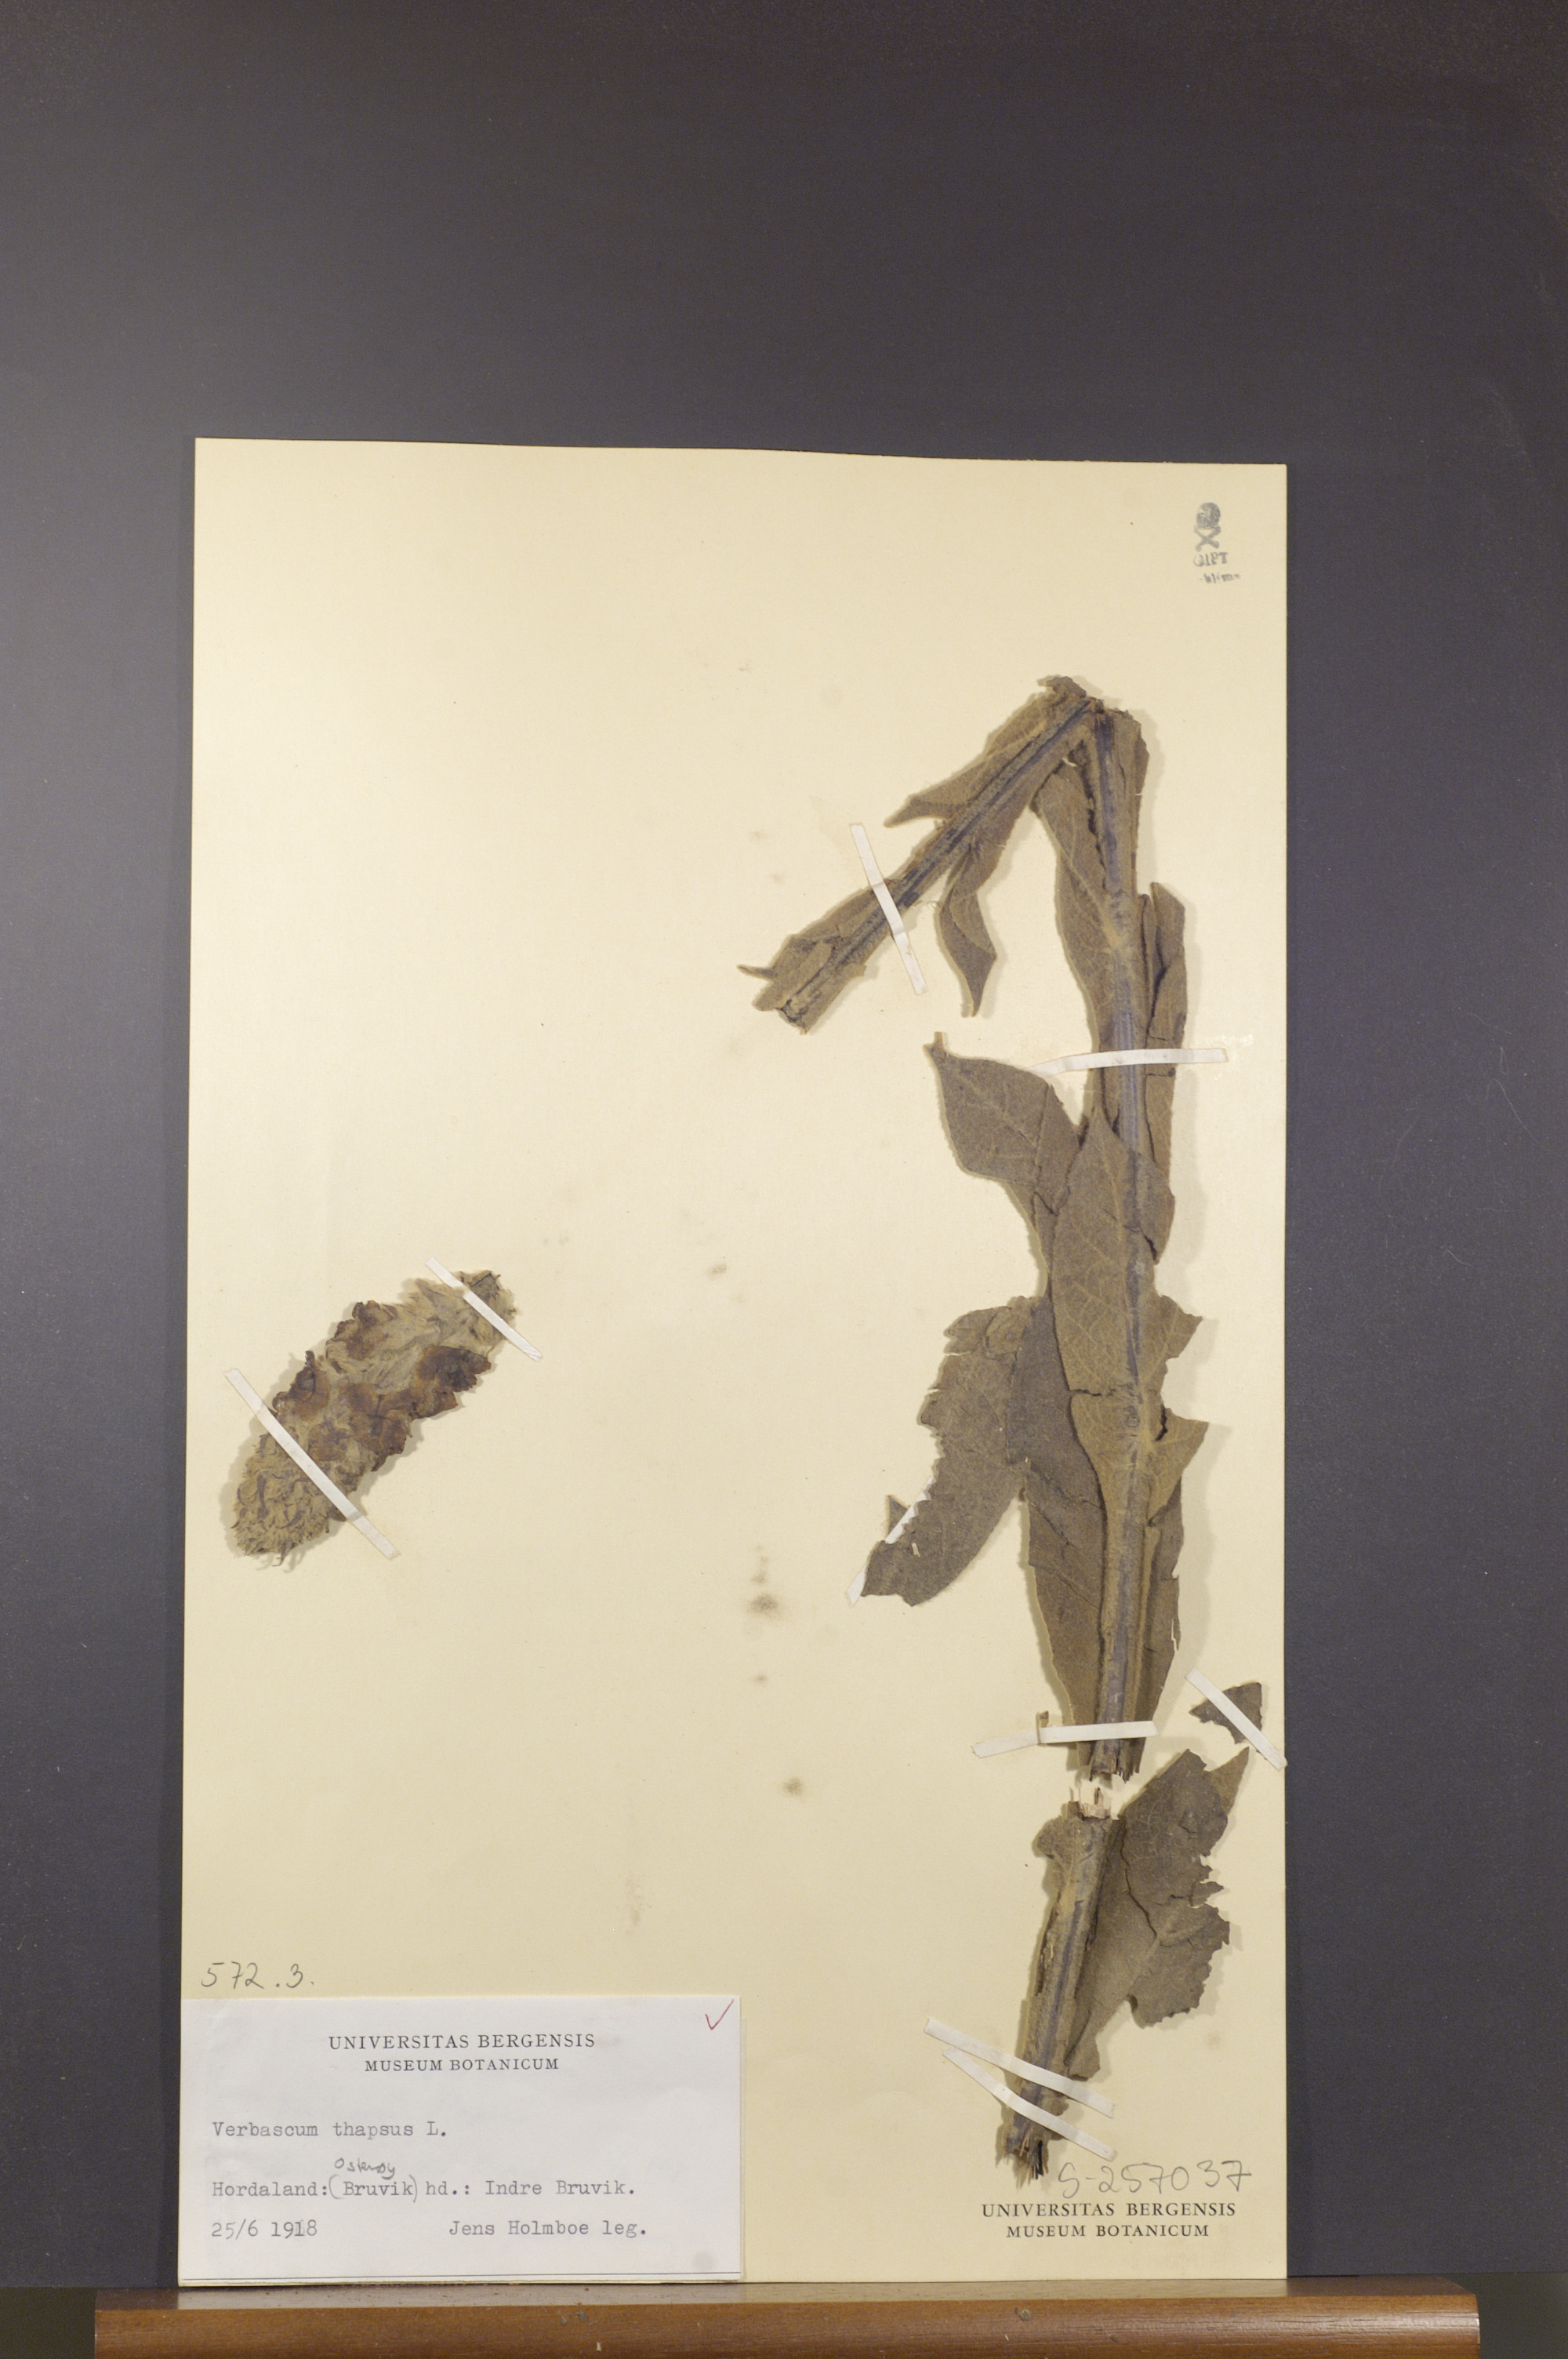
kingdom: Plantae
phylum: Tracheophyta
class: Magnoliopsida
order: Lamiales
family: Scrophulariaceae
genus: Verbascum
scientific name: Verbascum thapsus
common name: Common mullein
